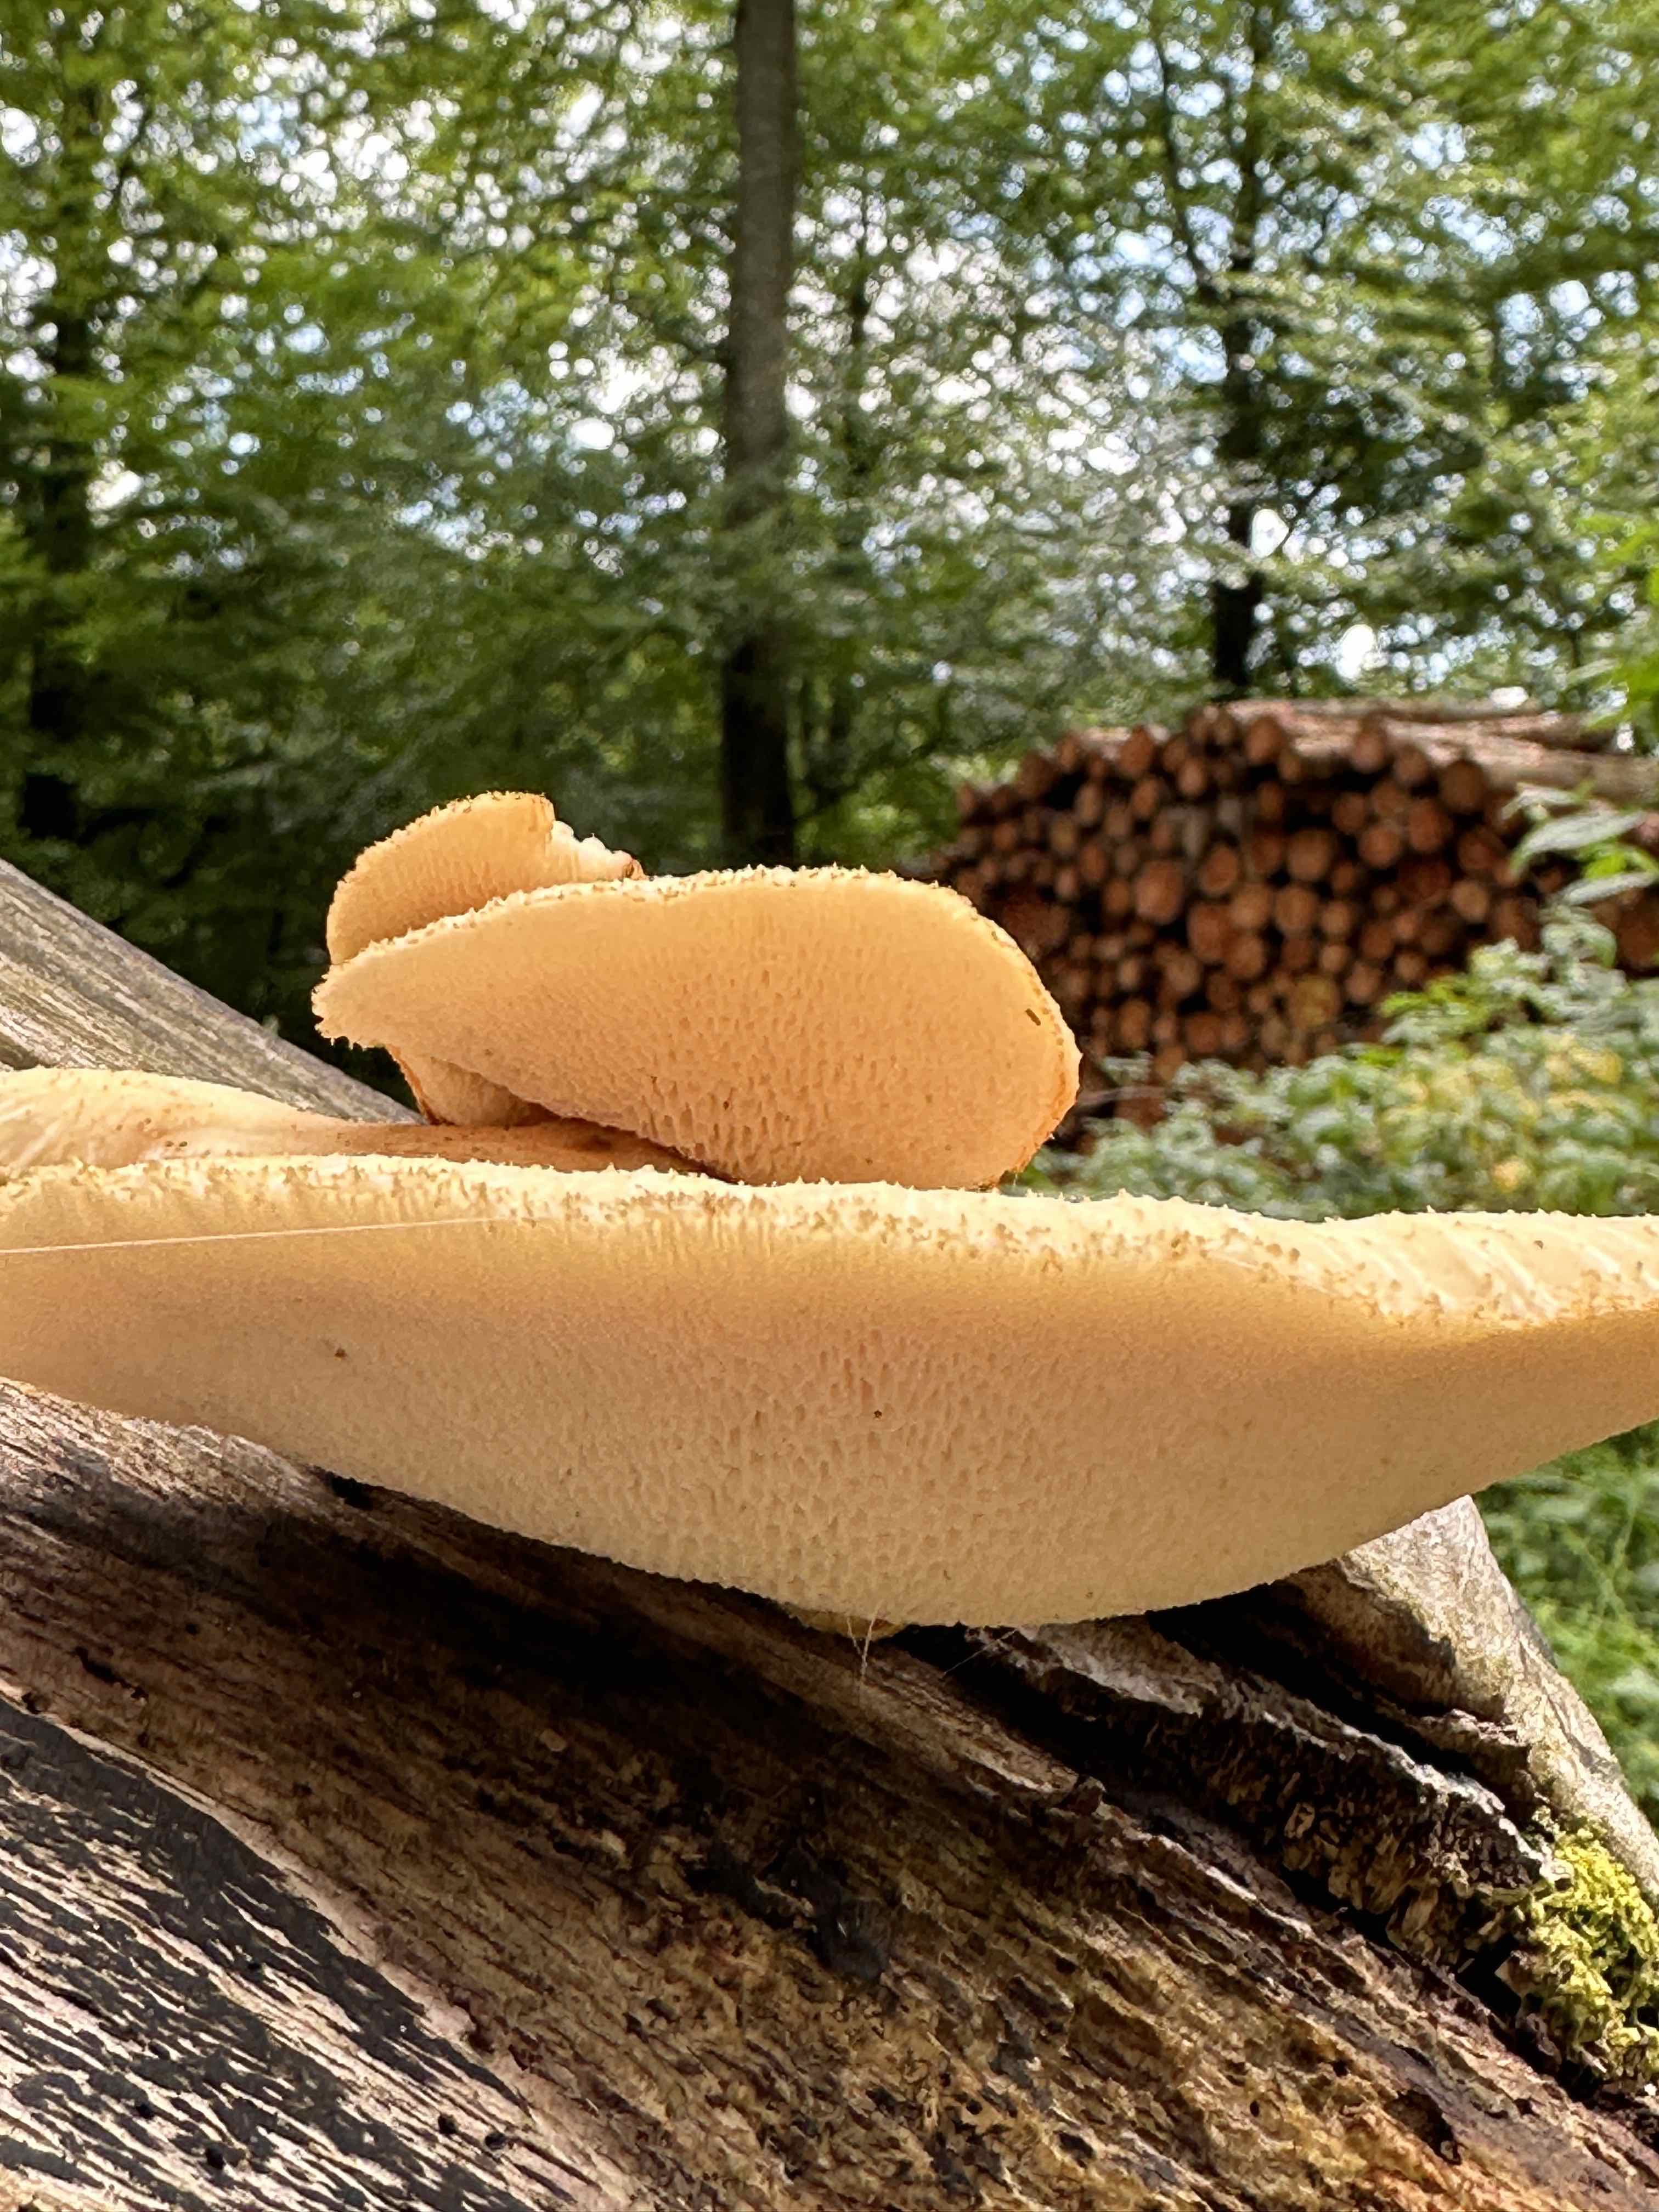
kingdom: Fungi
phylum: Basidiomycota
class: Agaricomycetes
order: Polyporales
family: Polyporaceae
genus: Polyporus
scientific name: Polyporus tuberaster
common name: knoldet stilkporesvamp
